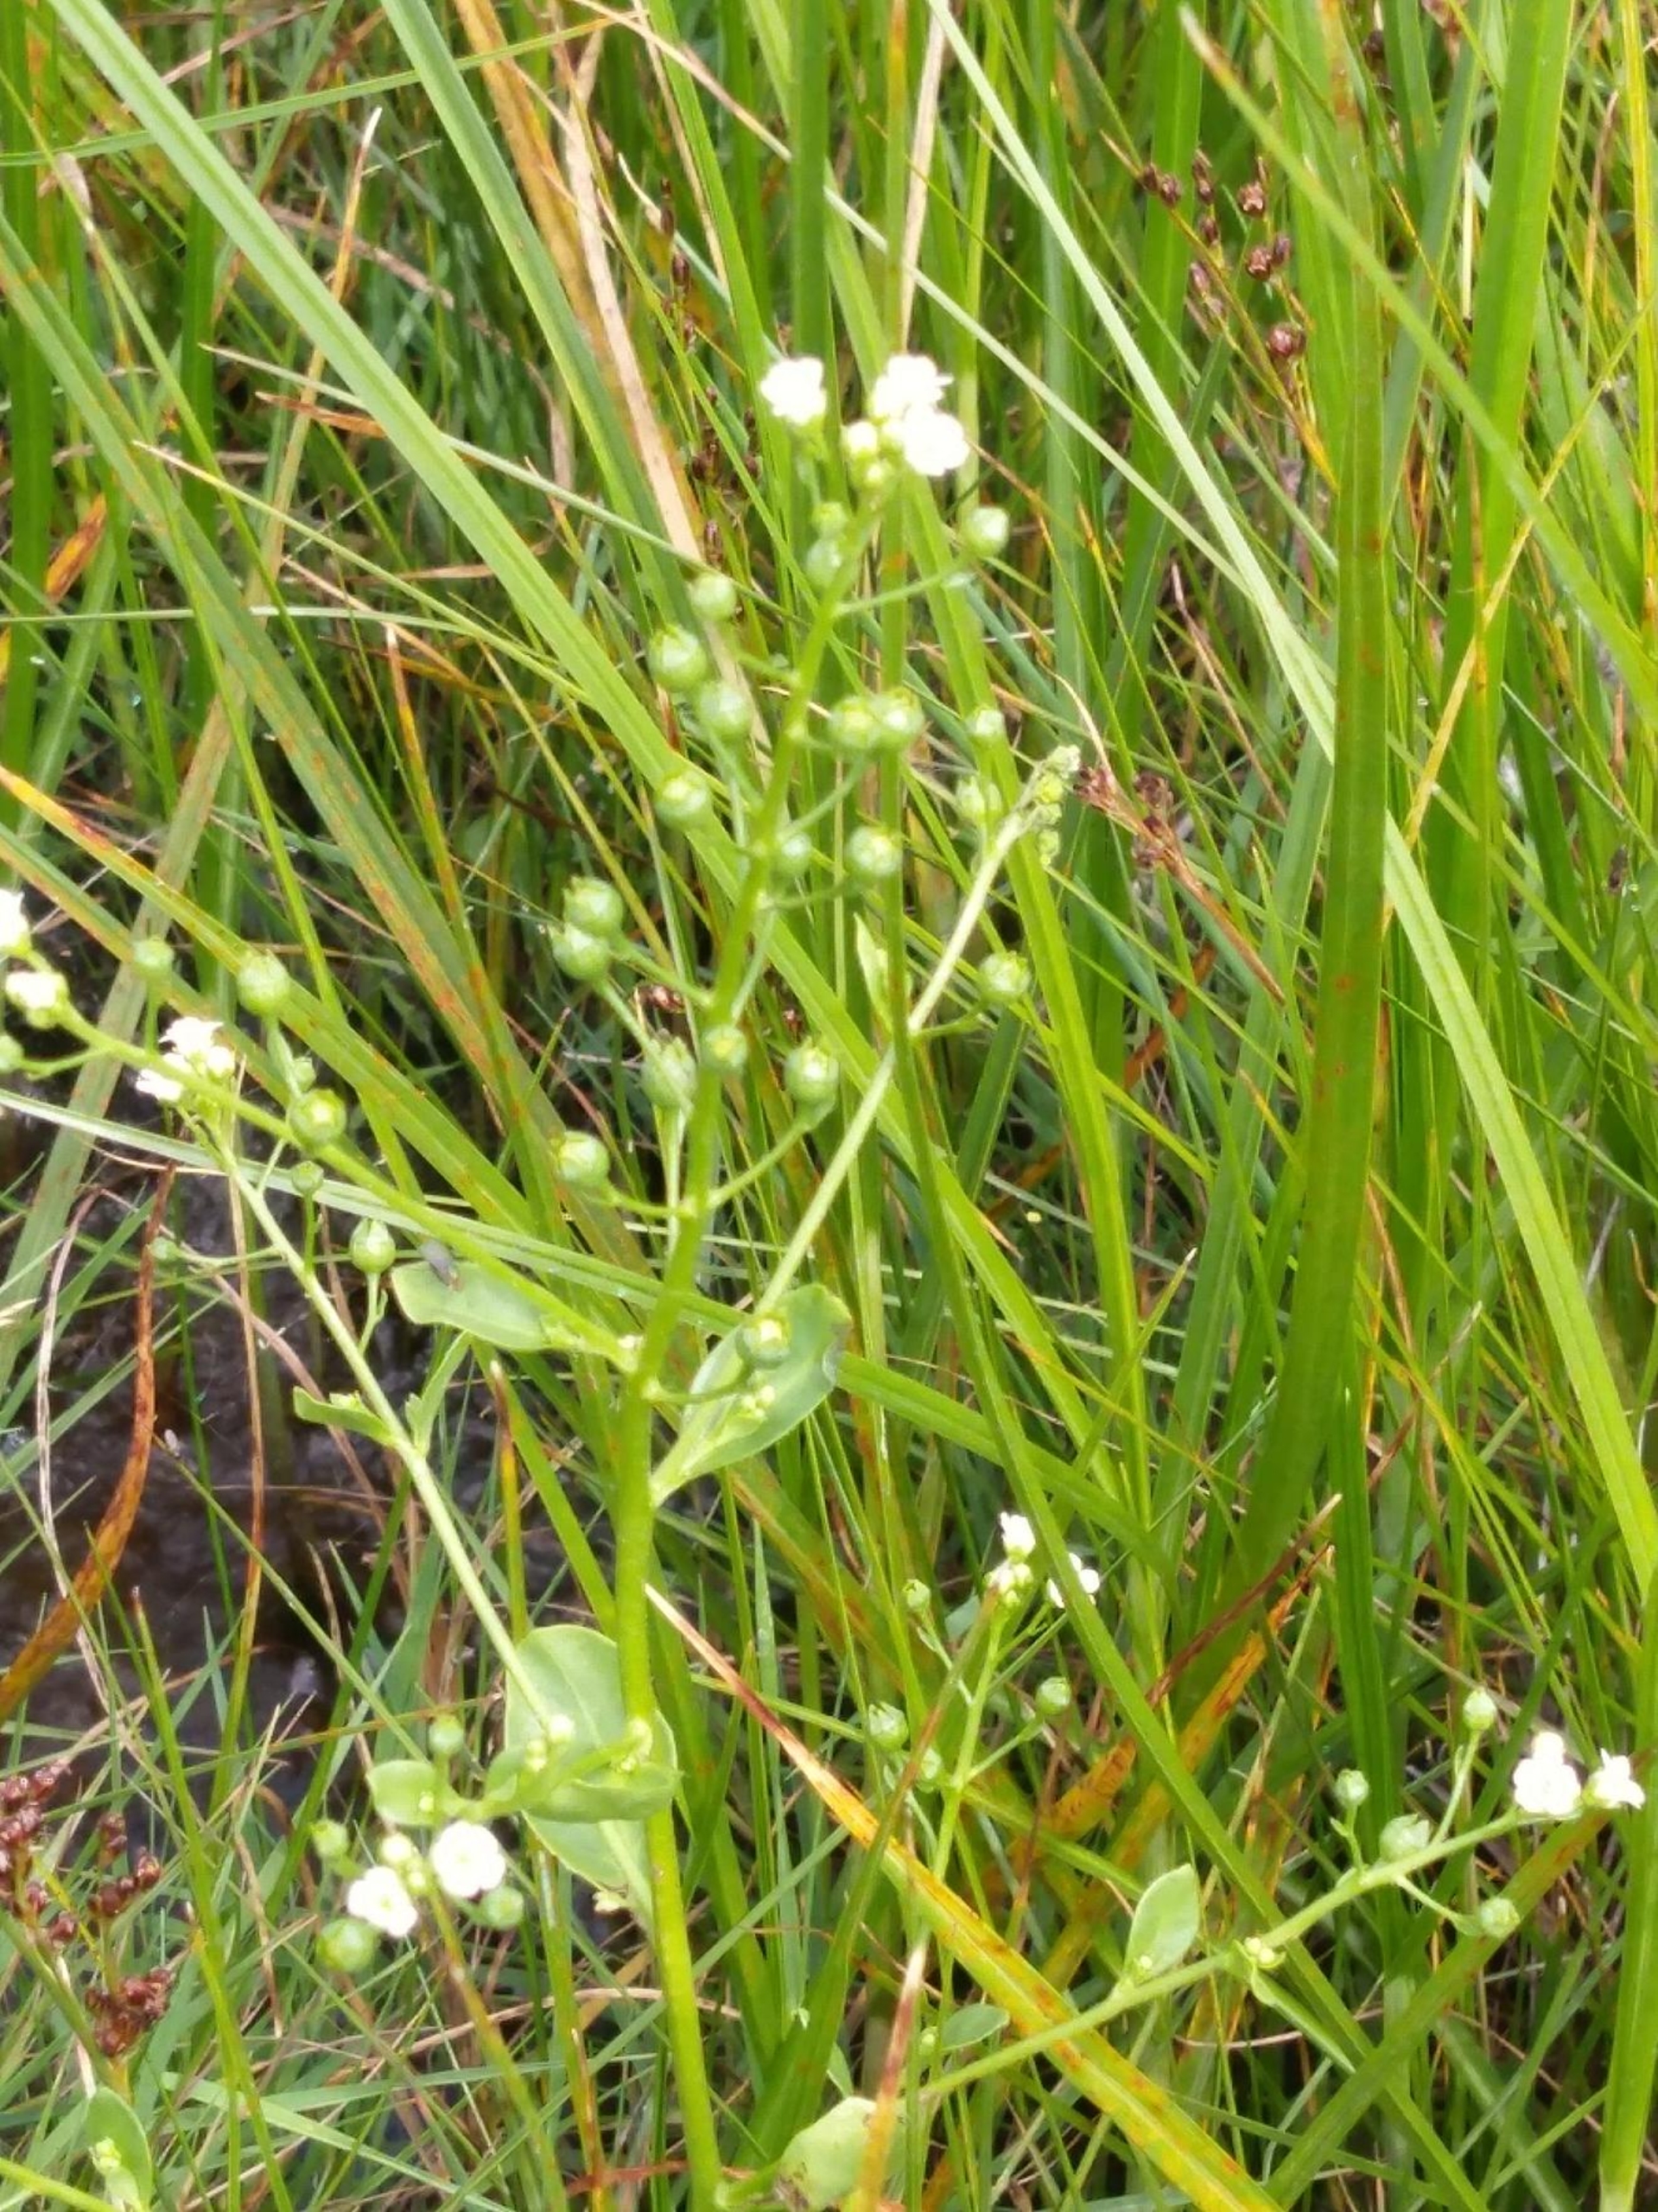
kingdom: Plantae
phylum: Tracheophyta
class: Magnoliopsida
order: Ericales
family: Primulaceae
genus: Samolus
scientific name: Samolus valerandi
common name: Samel
